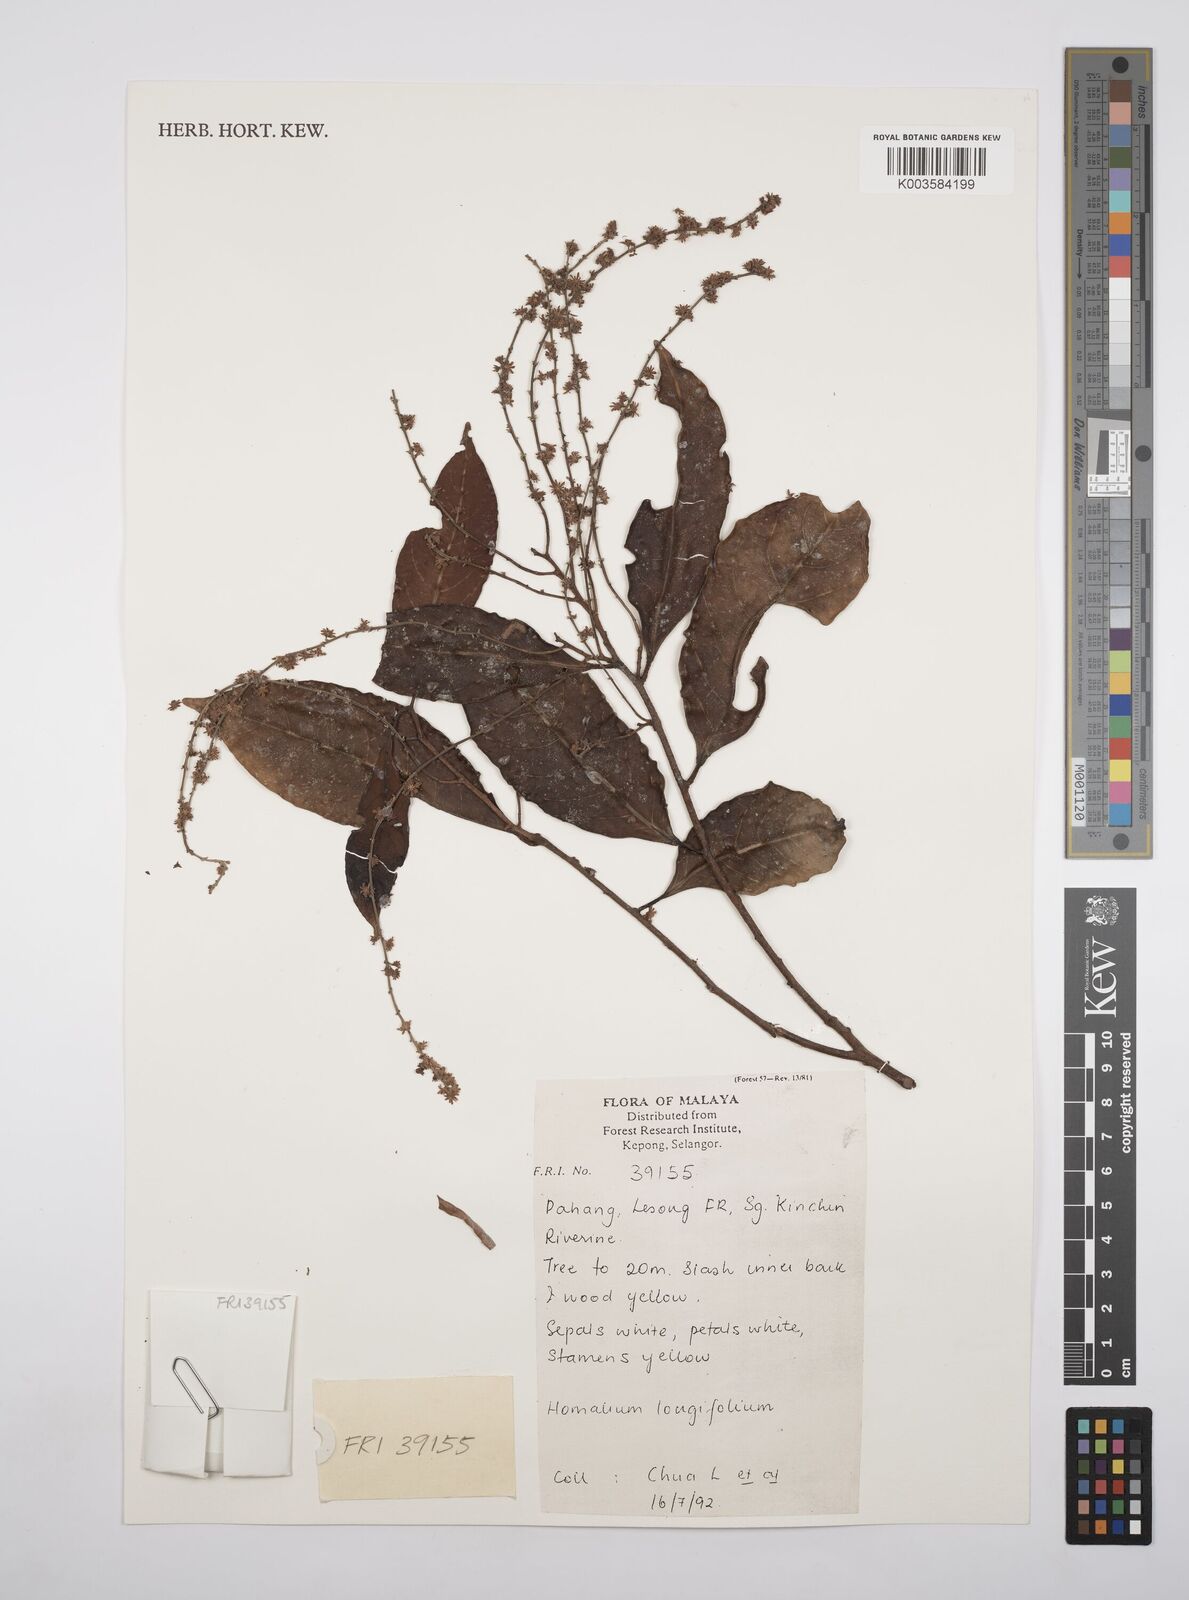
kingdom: Plantae
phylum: Tracheophyta
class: Magnoliopsida
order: Malpighiales
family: Salicaceae
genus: Homalium
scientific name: Homalium longifolium
